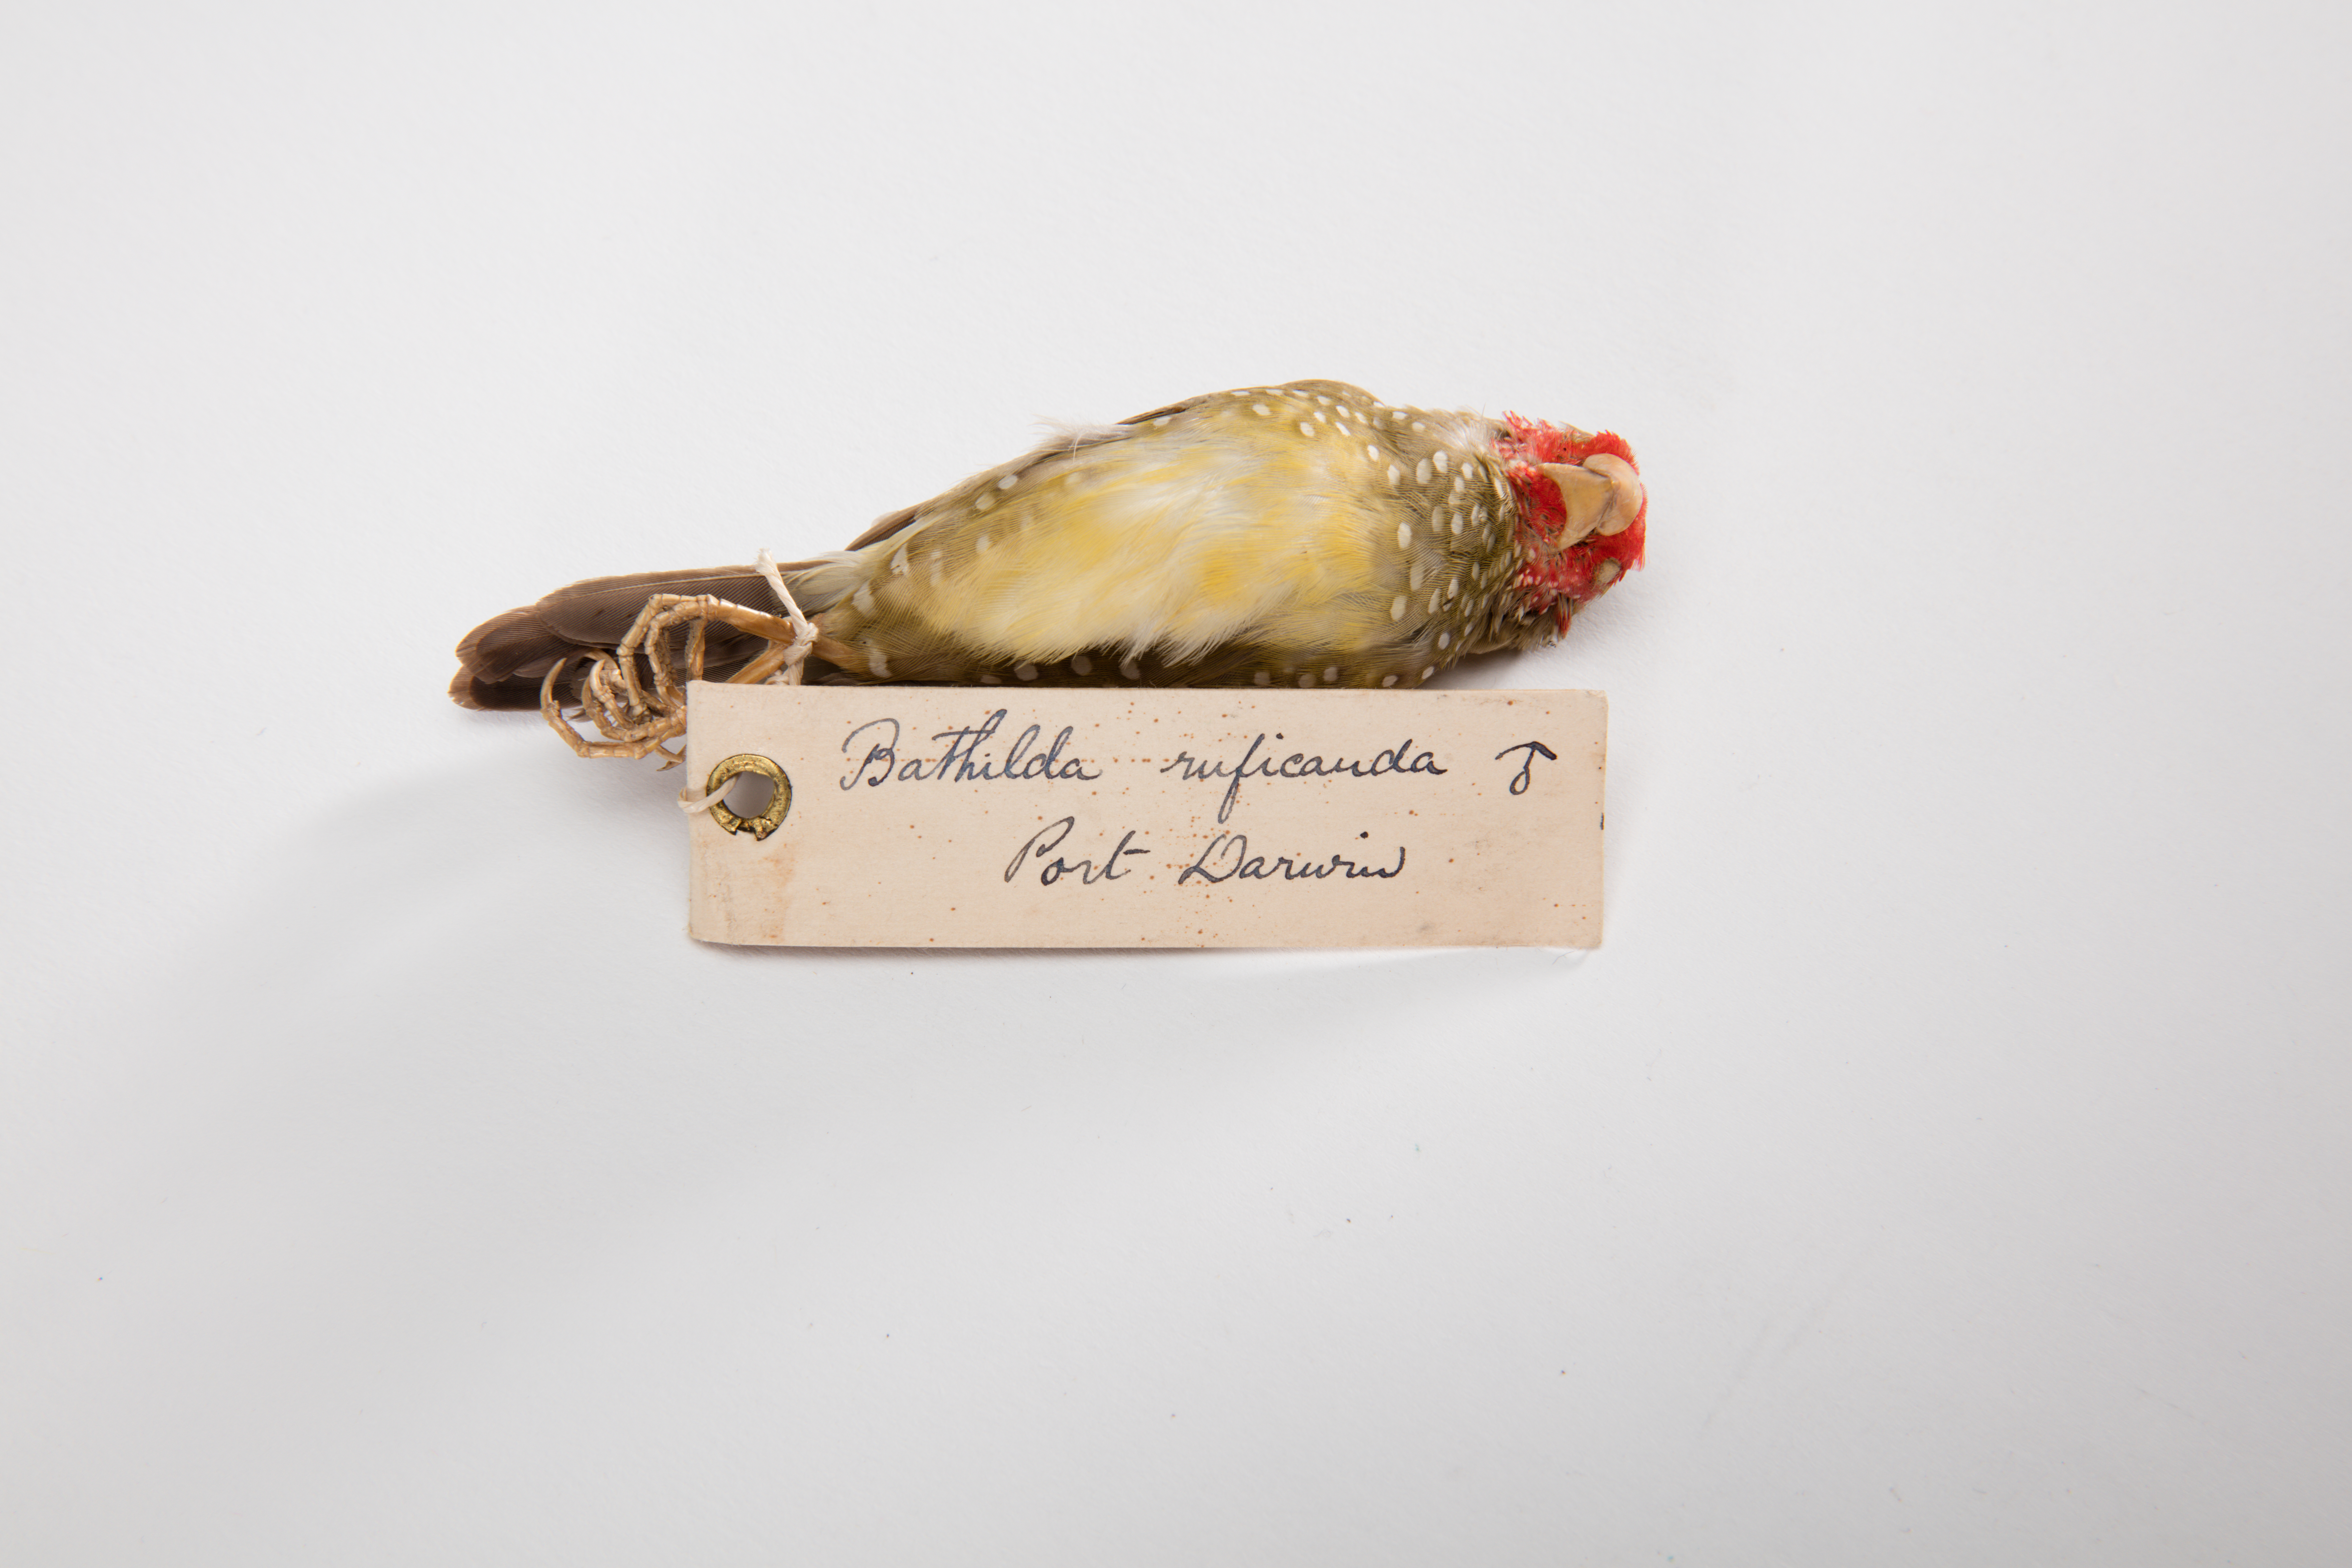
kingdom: Animalia
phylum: Chordata
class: Aves
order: Passeriformes
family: Estrildidae
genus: Neochmia
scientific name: Neochmia ruficauda
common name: Star finch
